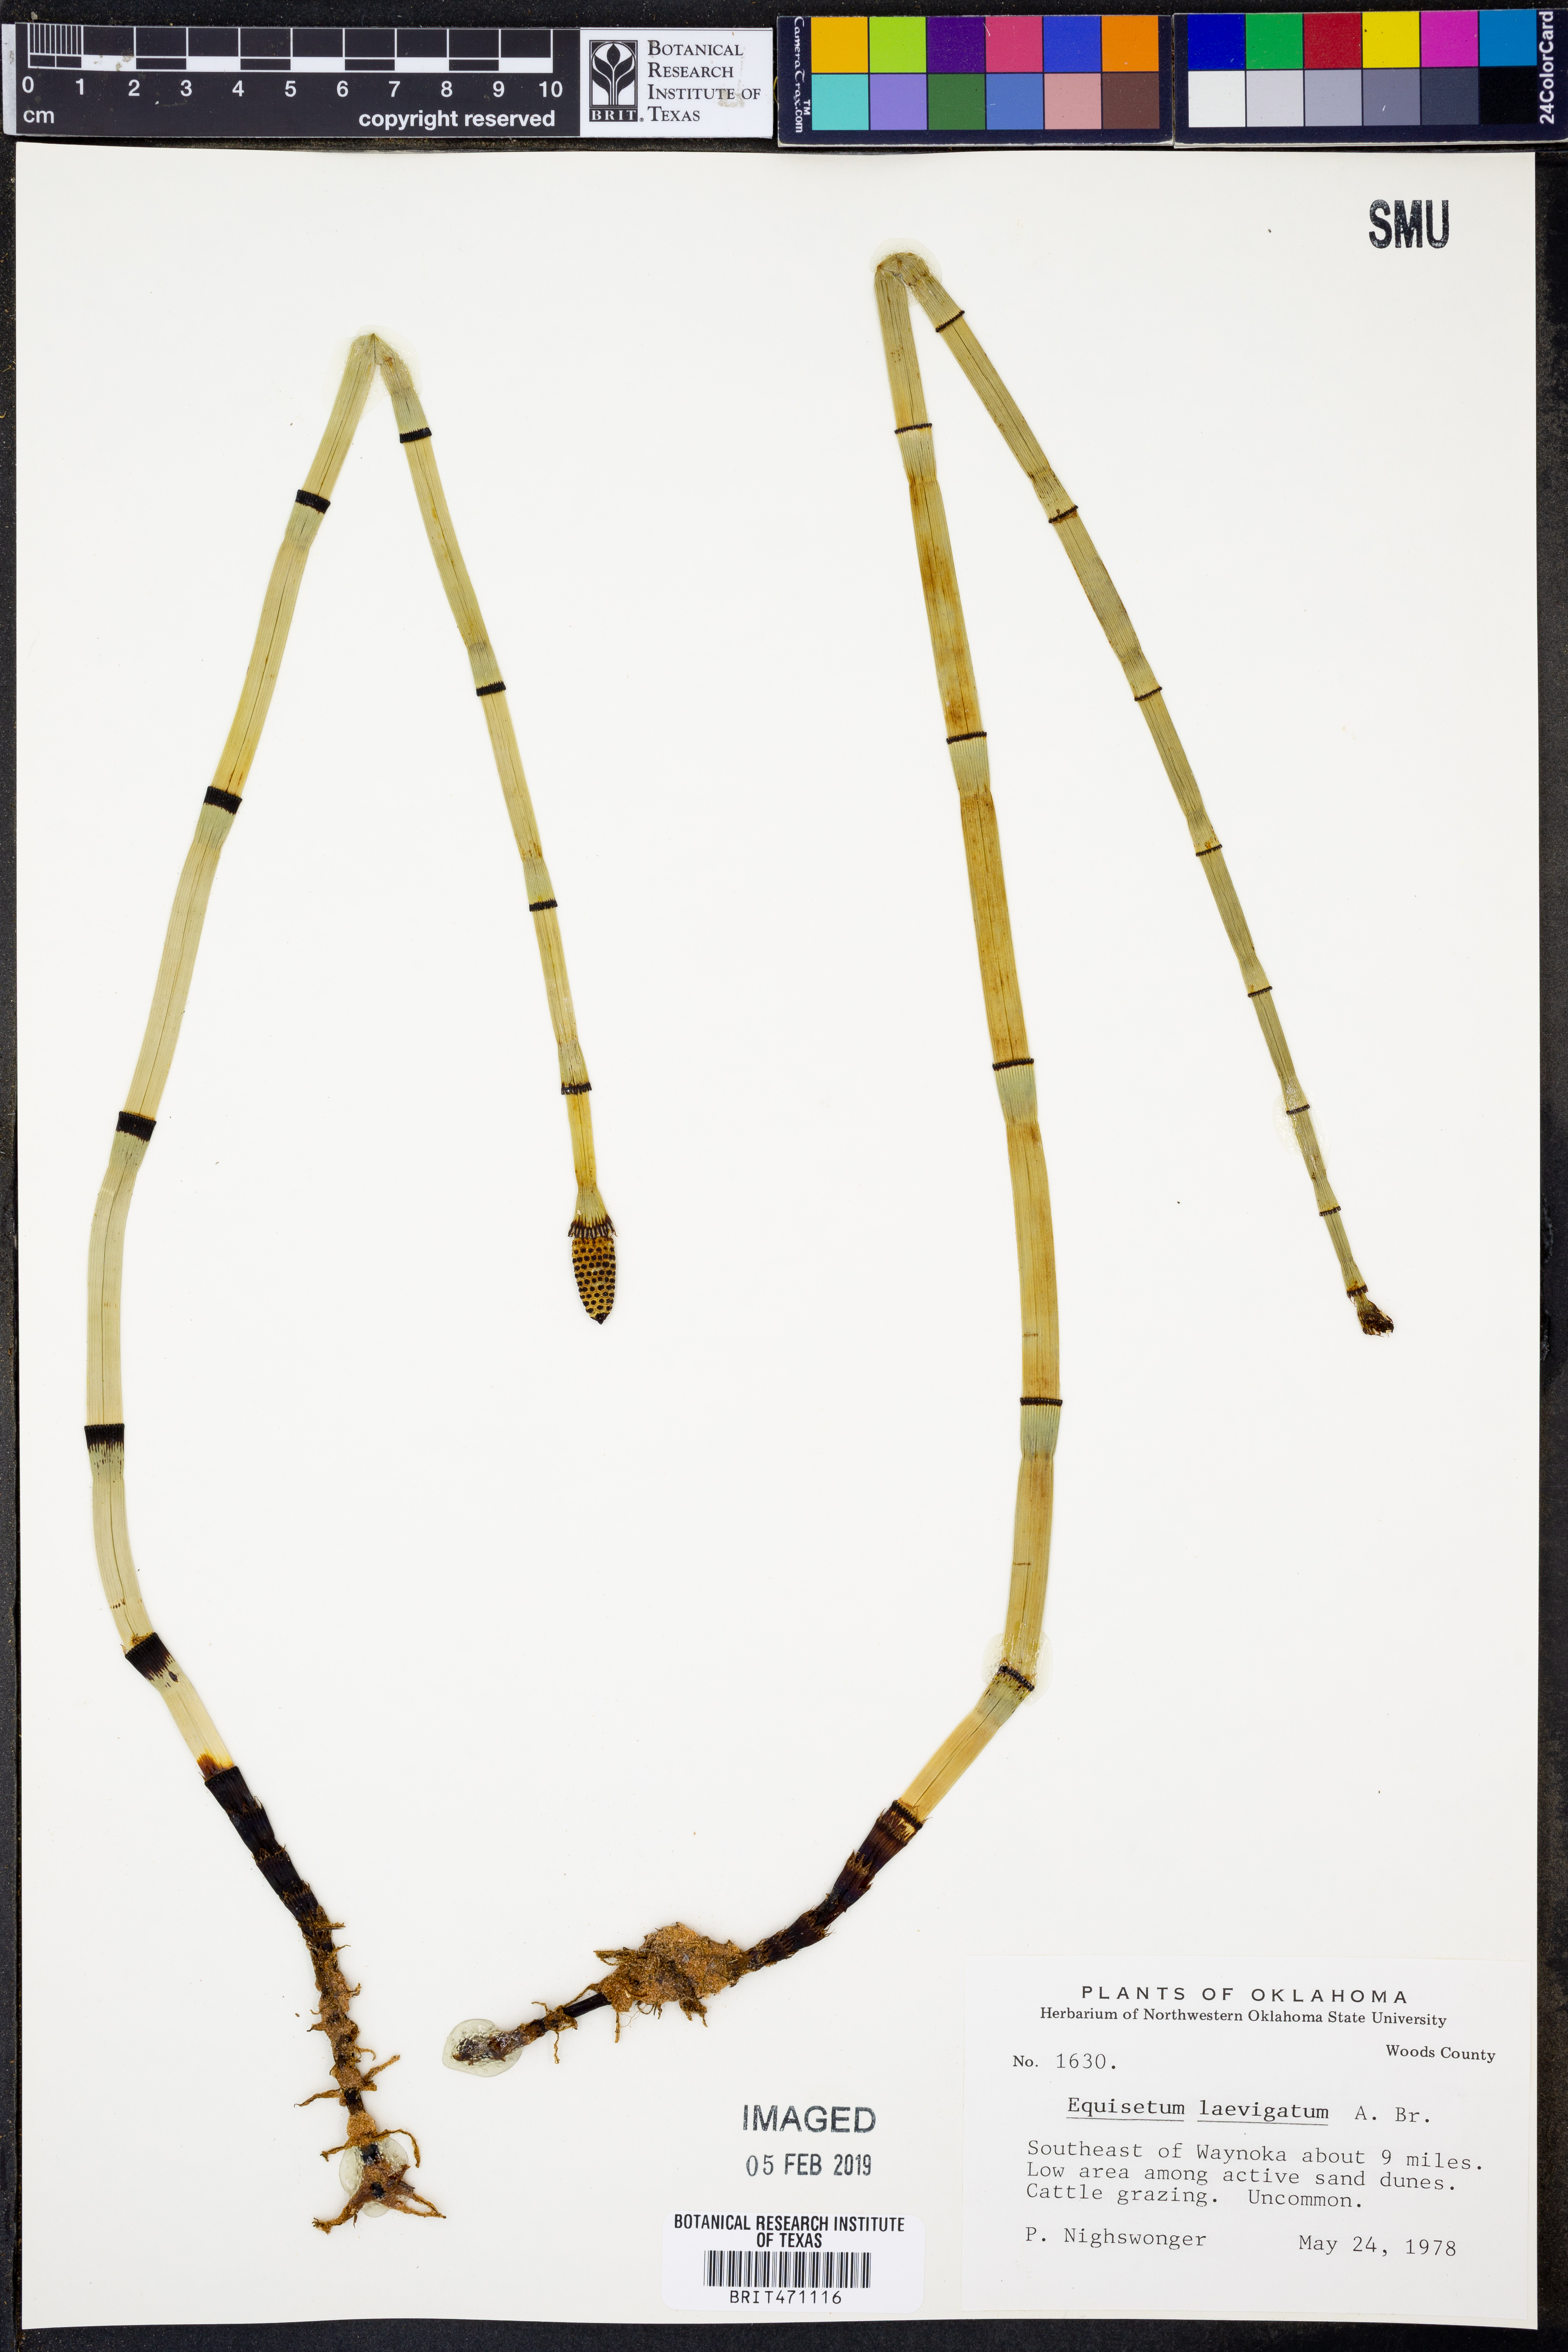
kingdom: Plantae
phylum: Tracheophyta
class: Polypodiopsida
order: Equisetales
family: Equisetaceae
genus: Equisetum
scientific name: Equisetum laevigatum
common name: Smooth scouring-rush
